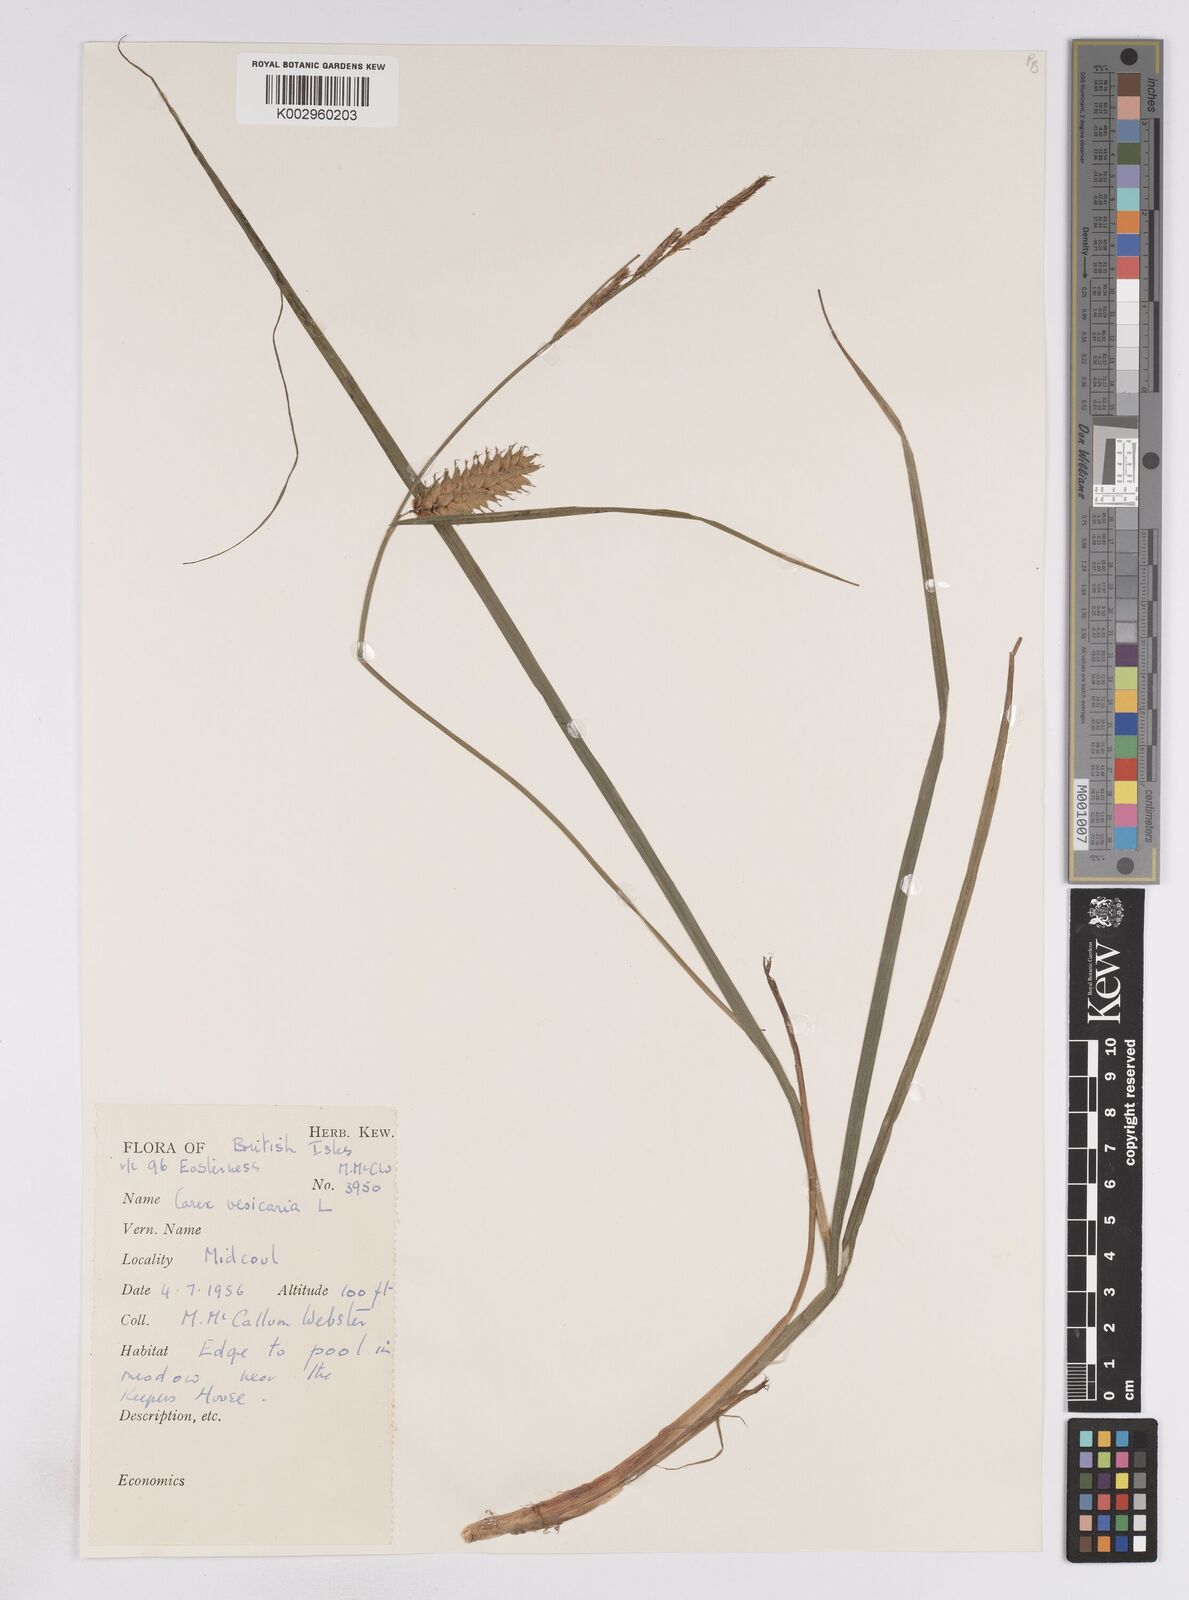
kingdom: Plantae
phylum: Tracheophyta
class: Liliopsida
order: Poales
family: Cyperaceae
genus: Carex
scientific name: Carex vesicaria
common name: Bladder-sedge
